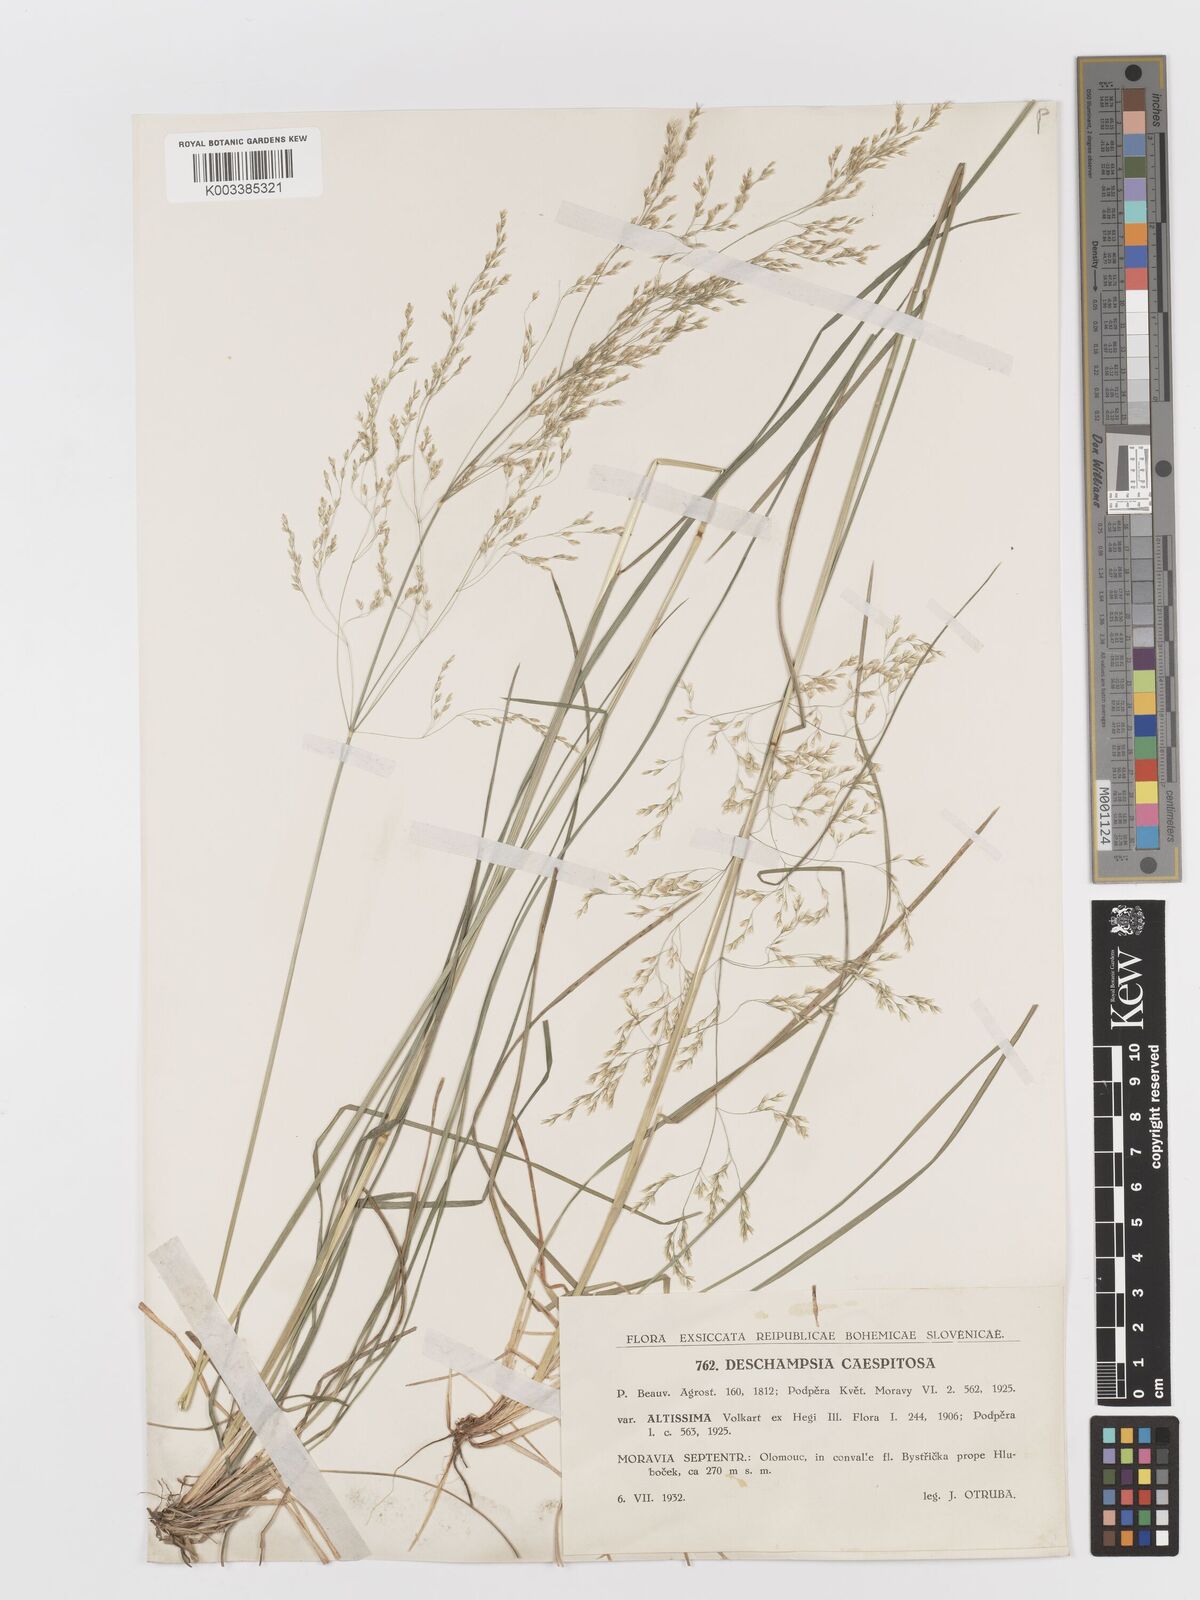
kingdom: Plantae
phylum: Tracheophyta
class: Liliopsida
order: Poales
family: Poaceae
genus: Deschampsia
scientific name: Deschampsia cespitosa
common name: Tufted hair-grass
